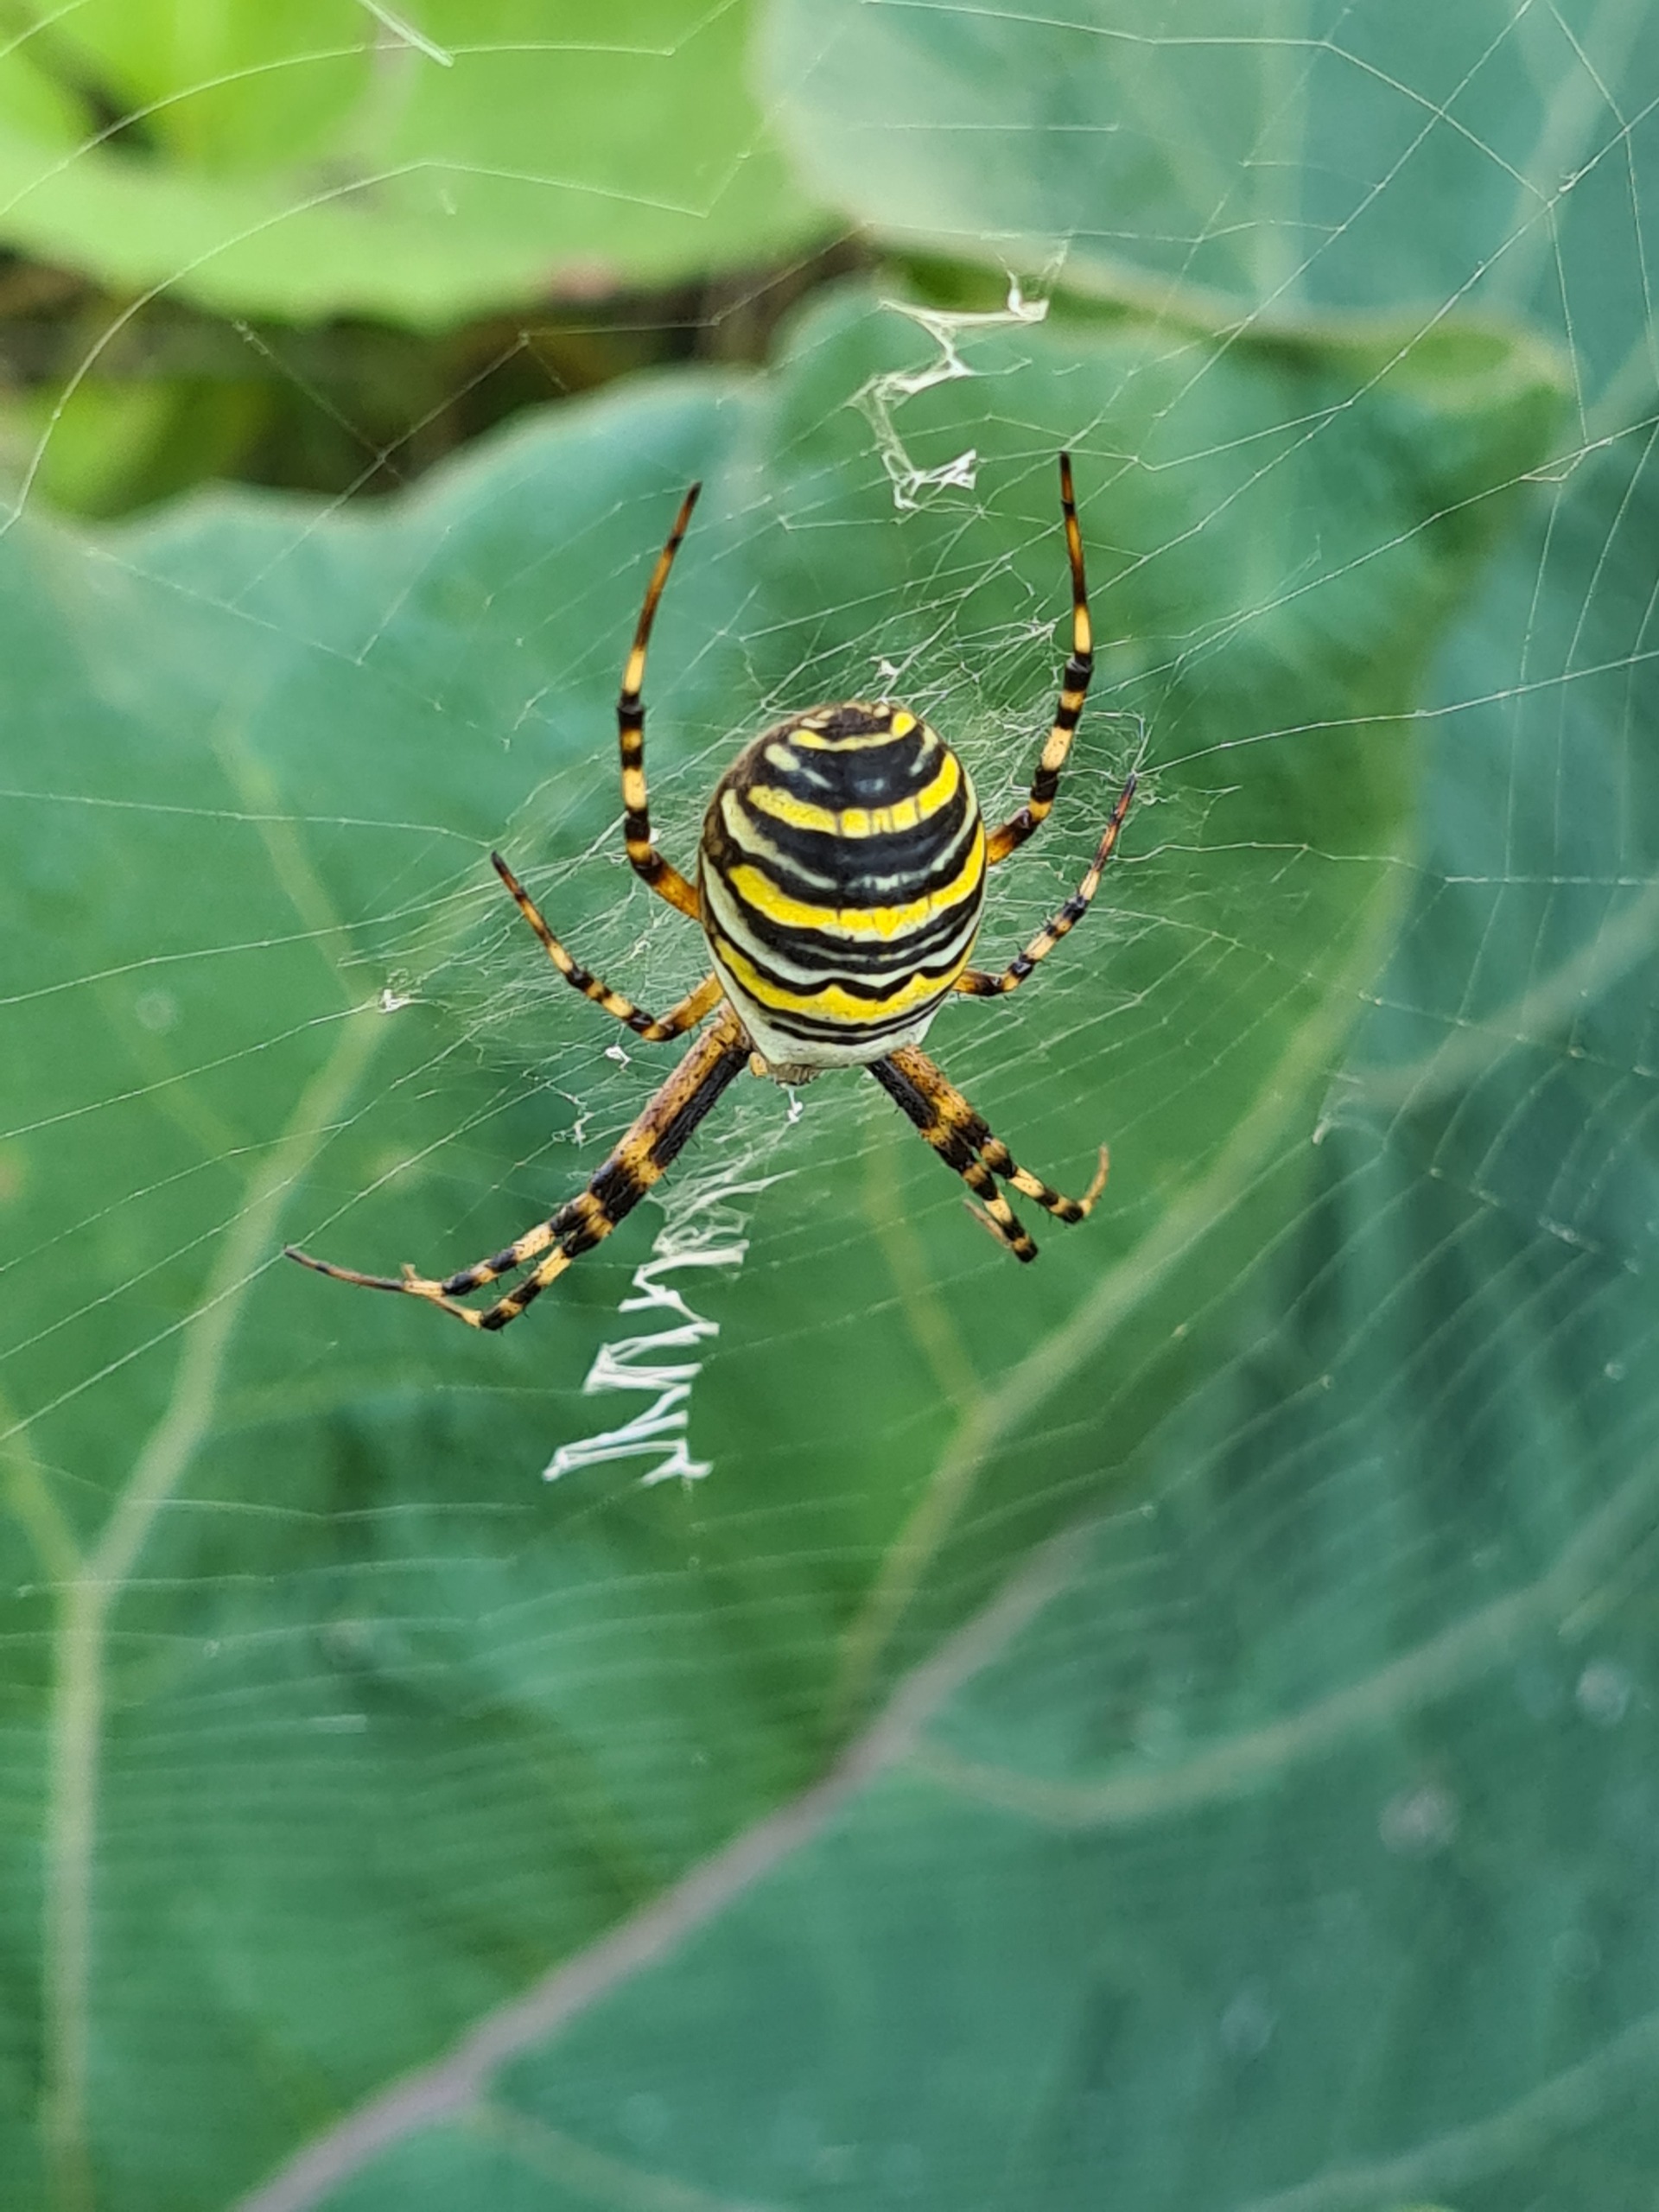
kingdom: Animalia
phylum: Arthropoda
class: Arachnida
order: Araneae
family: Araneidae
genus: Argiope
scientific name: Argiope bruennichi
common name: Hvepseedderkop
